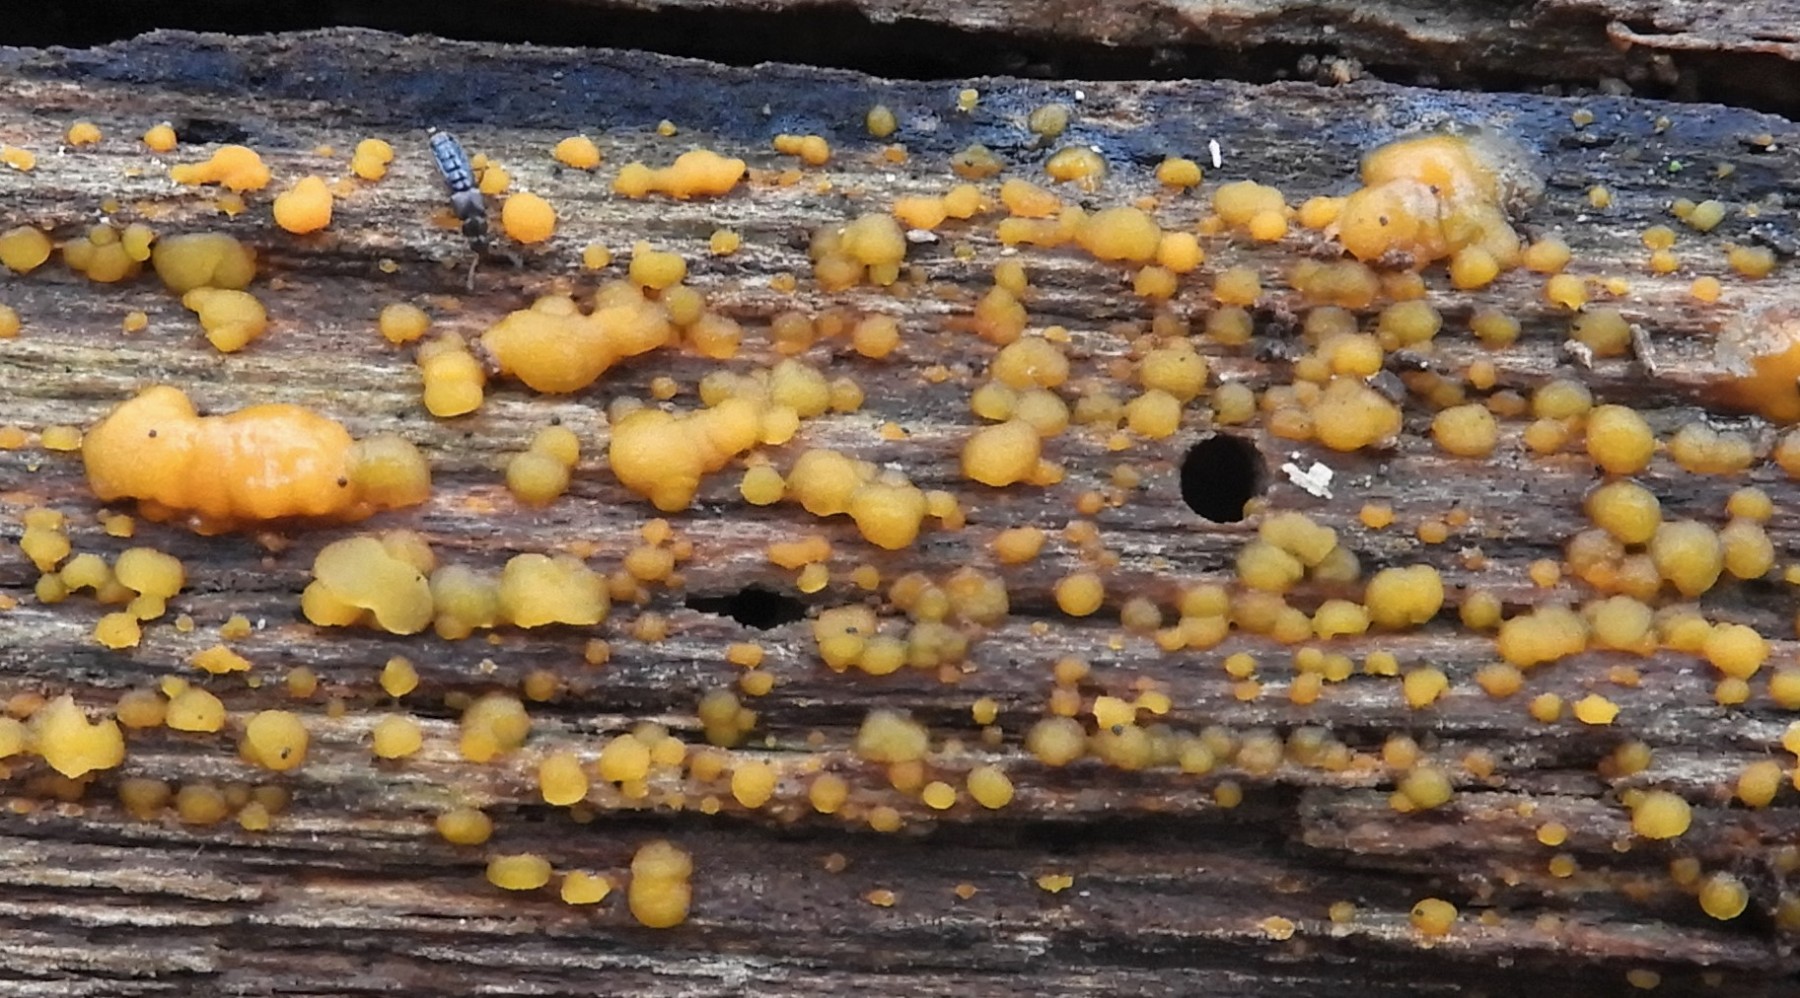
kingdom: Fungi
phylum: Basidiomycota
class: Dacrymycetes
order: Dacrymycetales
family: Dacrymycetaceae
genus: Dacrymyces
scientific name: Dacrymyces stillatus
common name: almindelig tåresvamp
